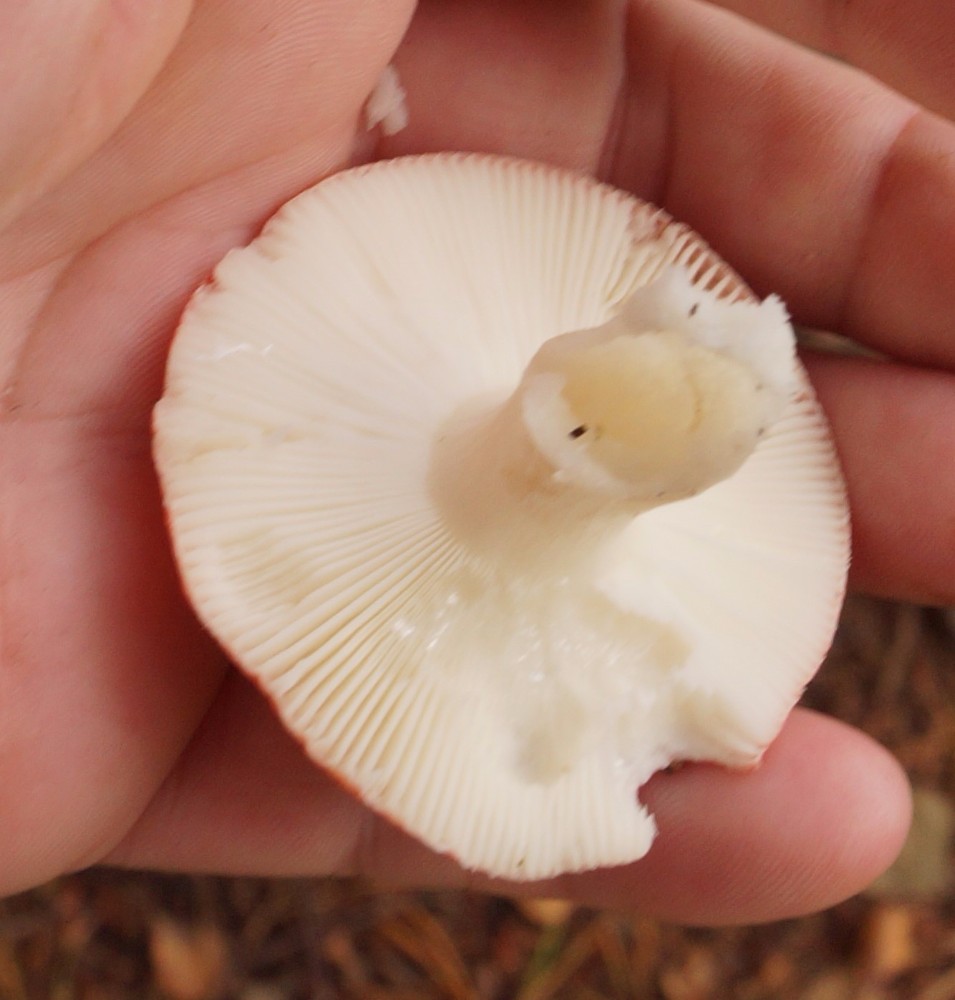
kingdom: Fungi
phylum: Basidiomycota
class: Agaricomycetes
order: Russulales
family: Russulaceae
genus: Russula
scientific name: Russula emetica
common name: stor gift-skørhat
